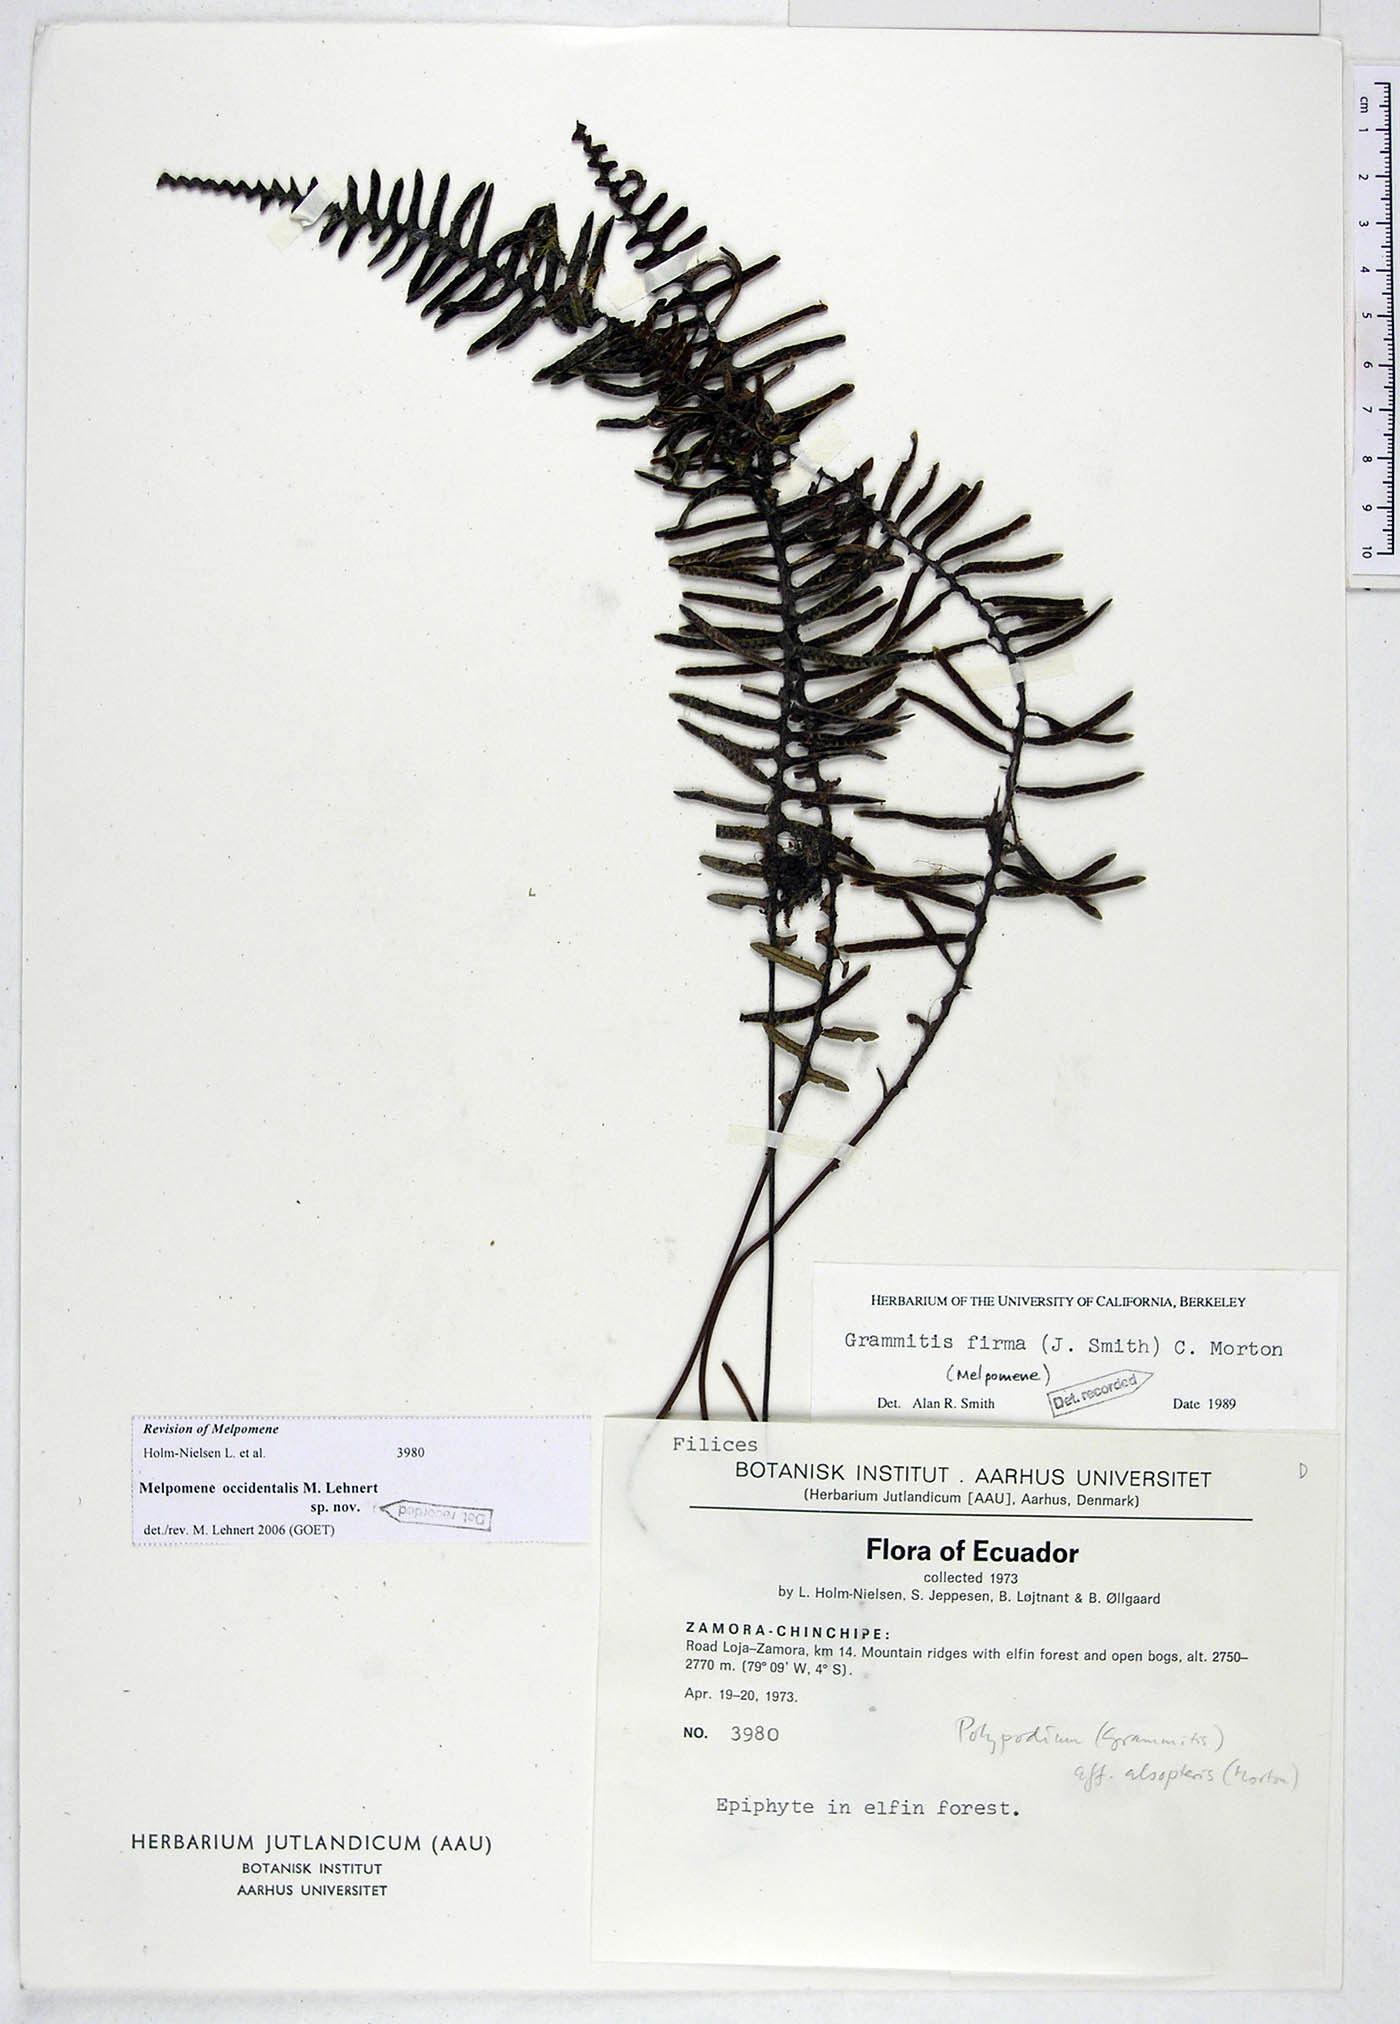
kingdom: Plantae
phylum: Tracheophyta
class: Polypodiopsida
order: Polypodiales
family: Polypodiaceae
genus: Melpomene
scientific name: Melpomene occidentalis
